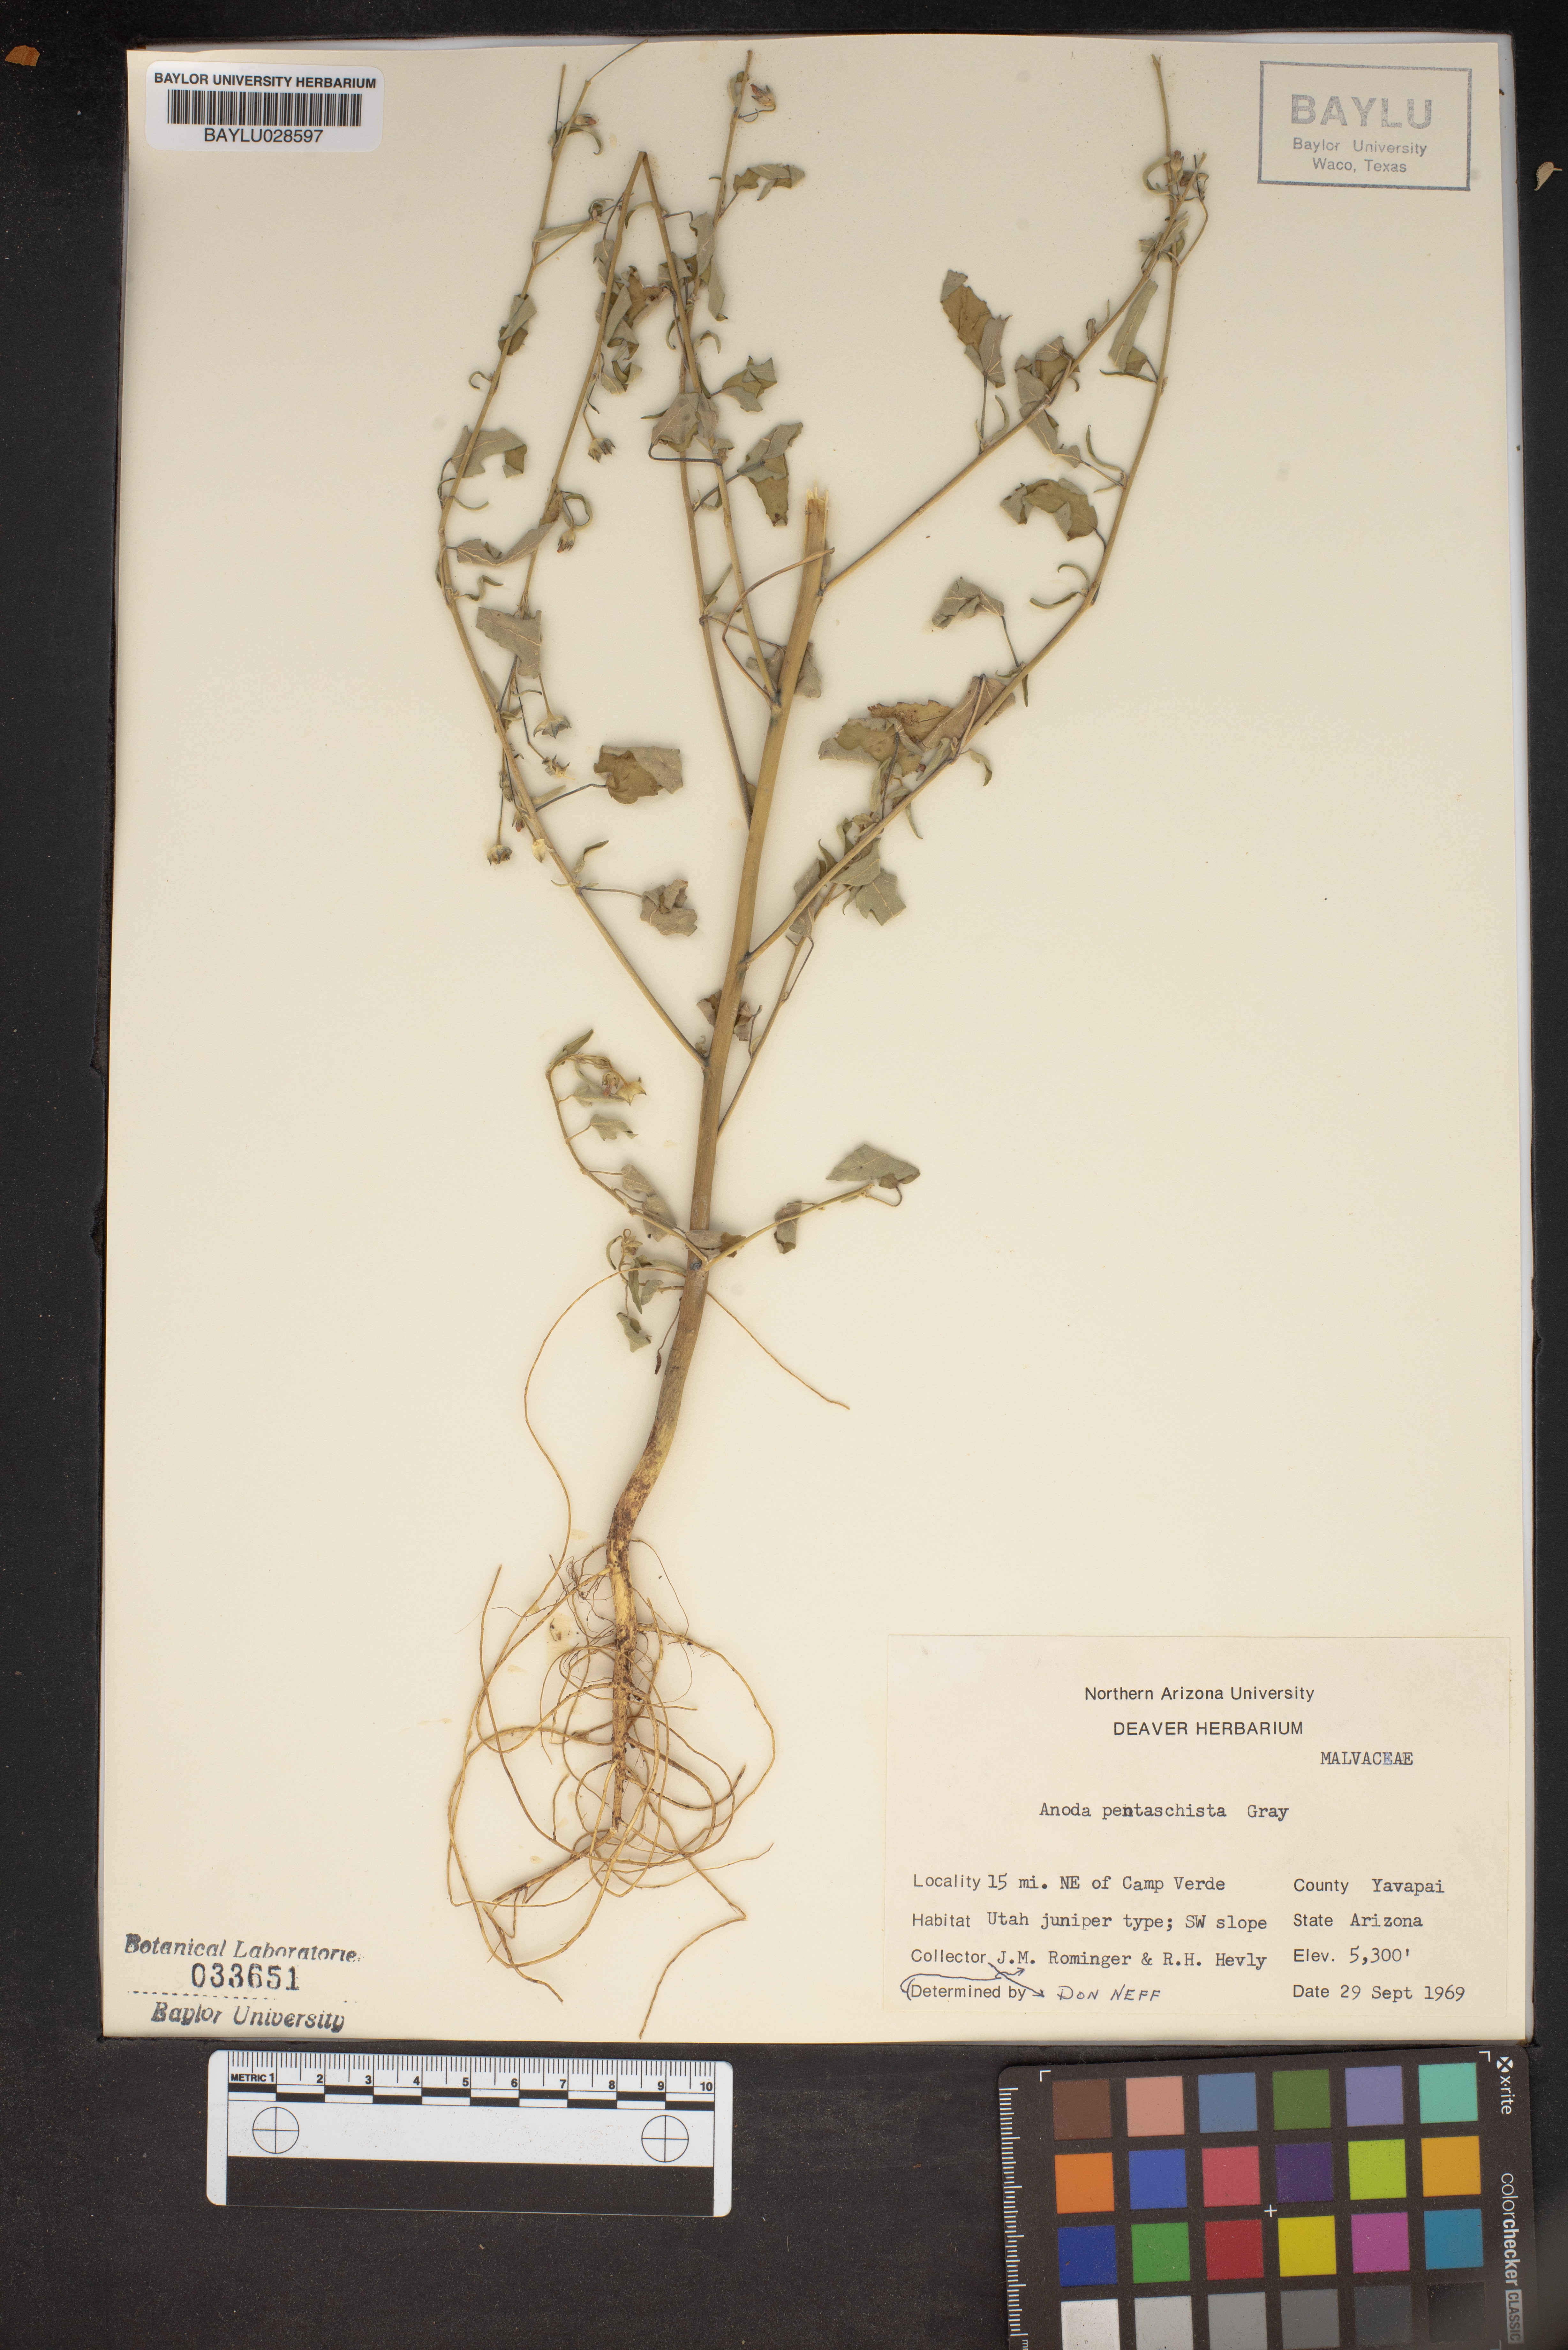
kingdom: Plantae
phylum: Tracheophyta
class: Magnoliopsida
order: Malvales
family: Malvaceae
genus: Anoda
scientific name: Anoda pentaschista
